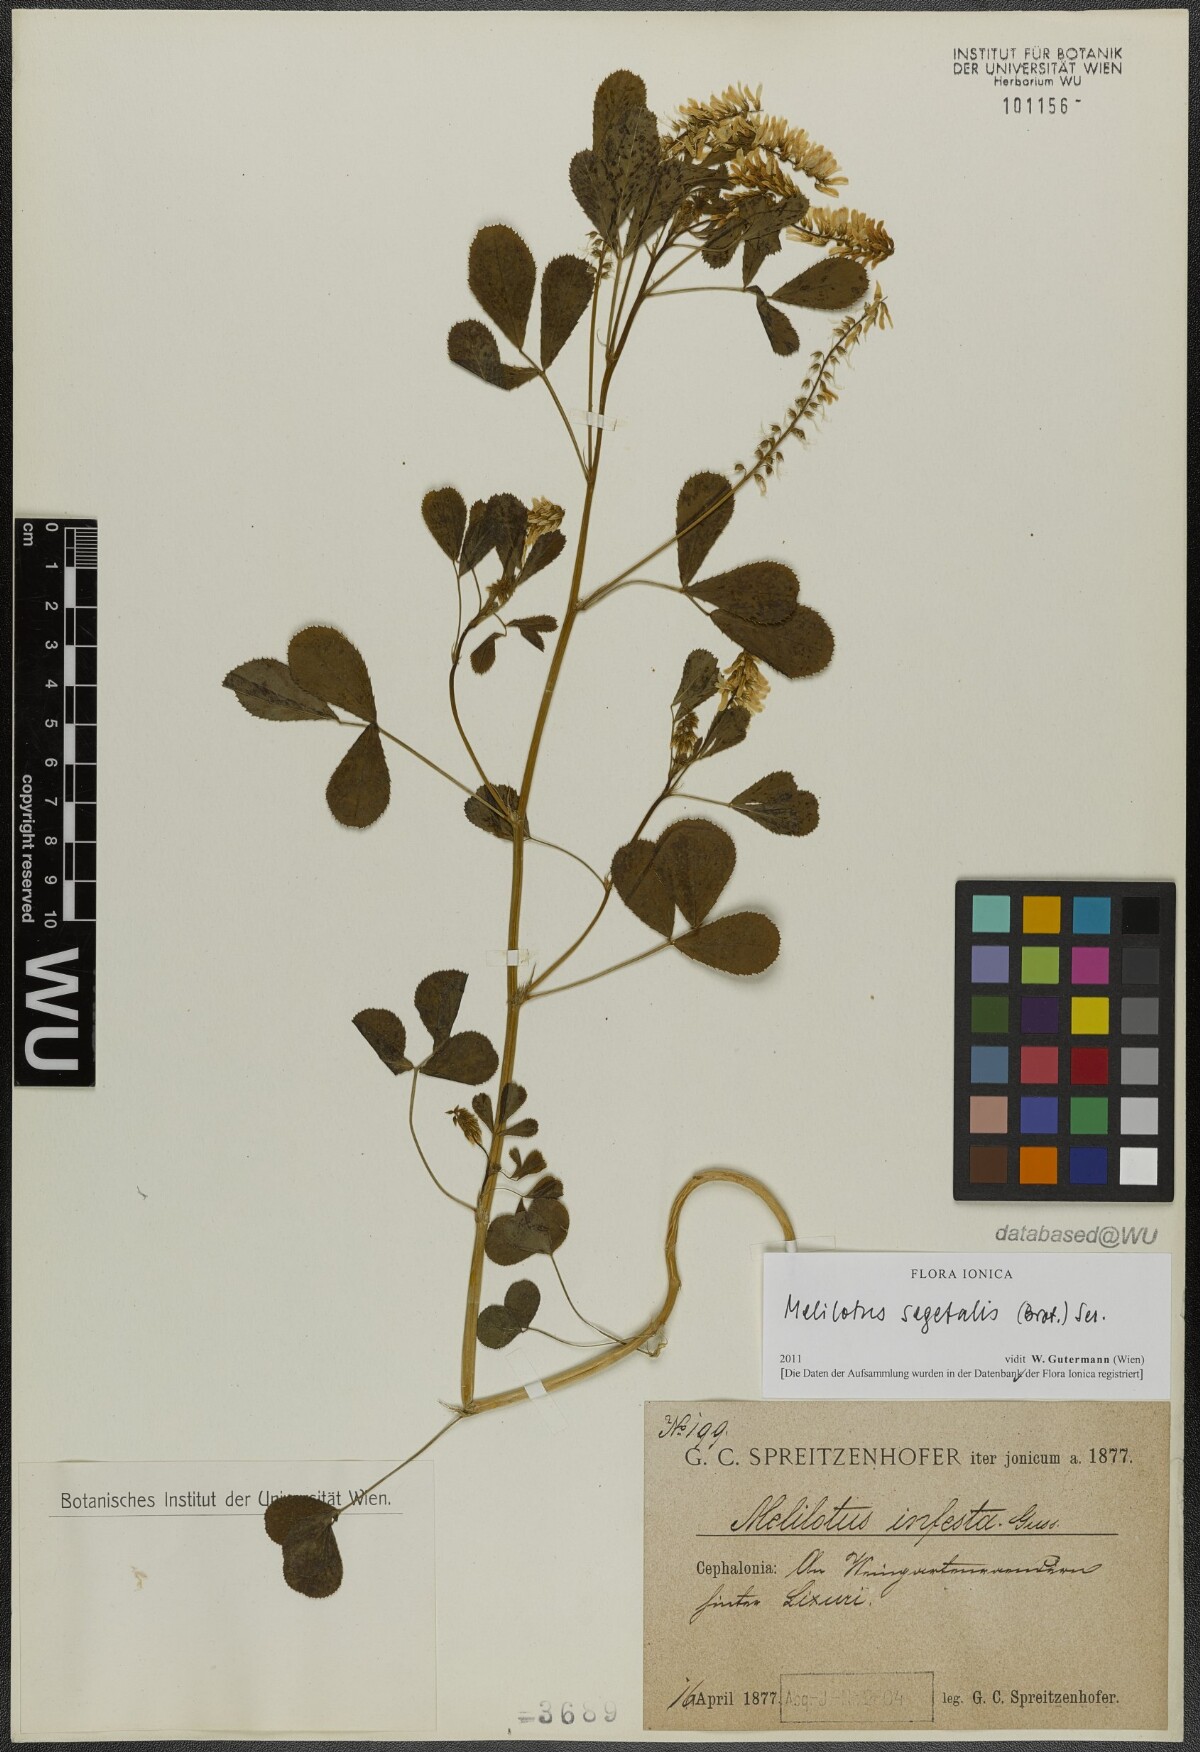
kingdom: Plantae
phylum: Tracheophyta
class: Magnoliopsida
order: Fabales
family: Fabaceae
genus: Melilotus
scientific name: Melilotus segetalis
